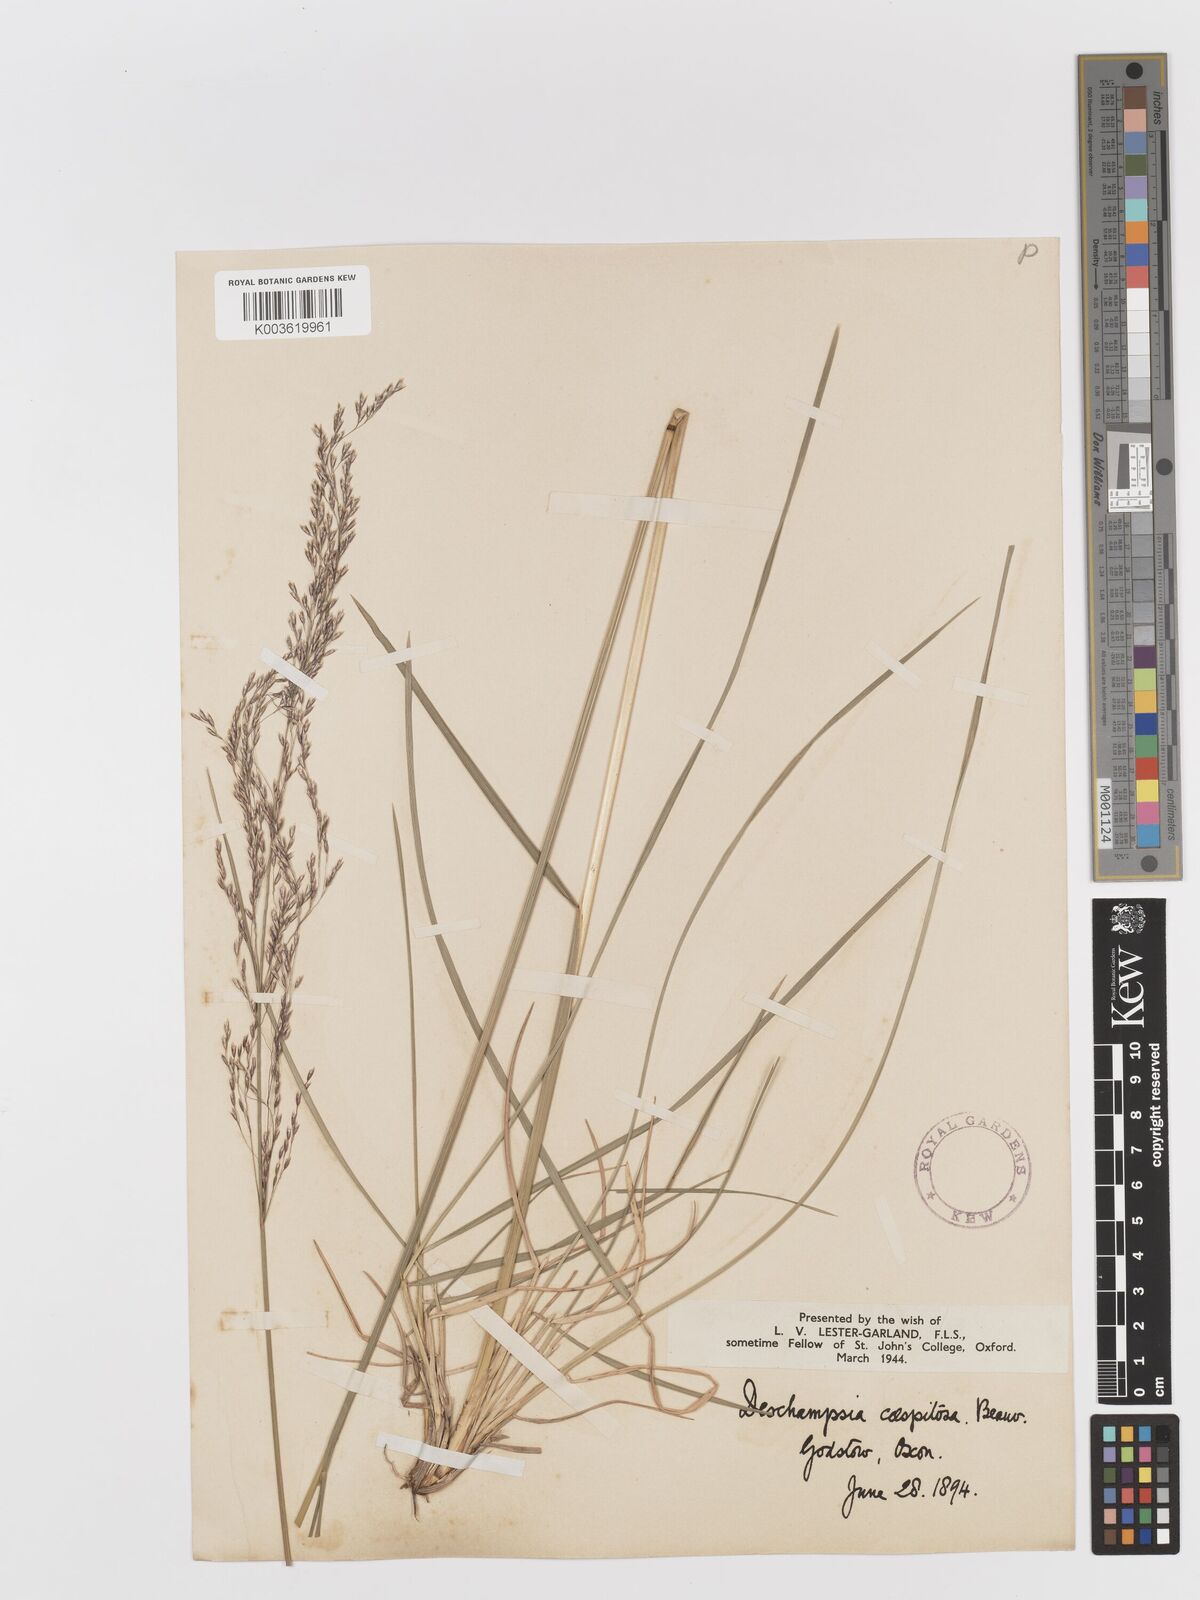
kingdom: Plantae
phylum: Tracheophyta
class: Liliopsida
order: Poales
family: Poaceae
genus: Deschampsia
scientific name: Deschampsia cespitosa
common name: Tufted hair-grass
